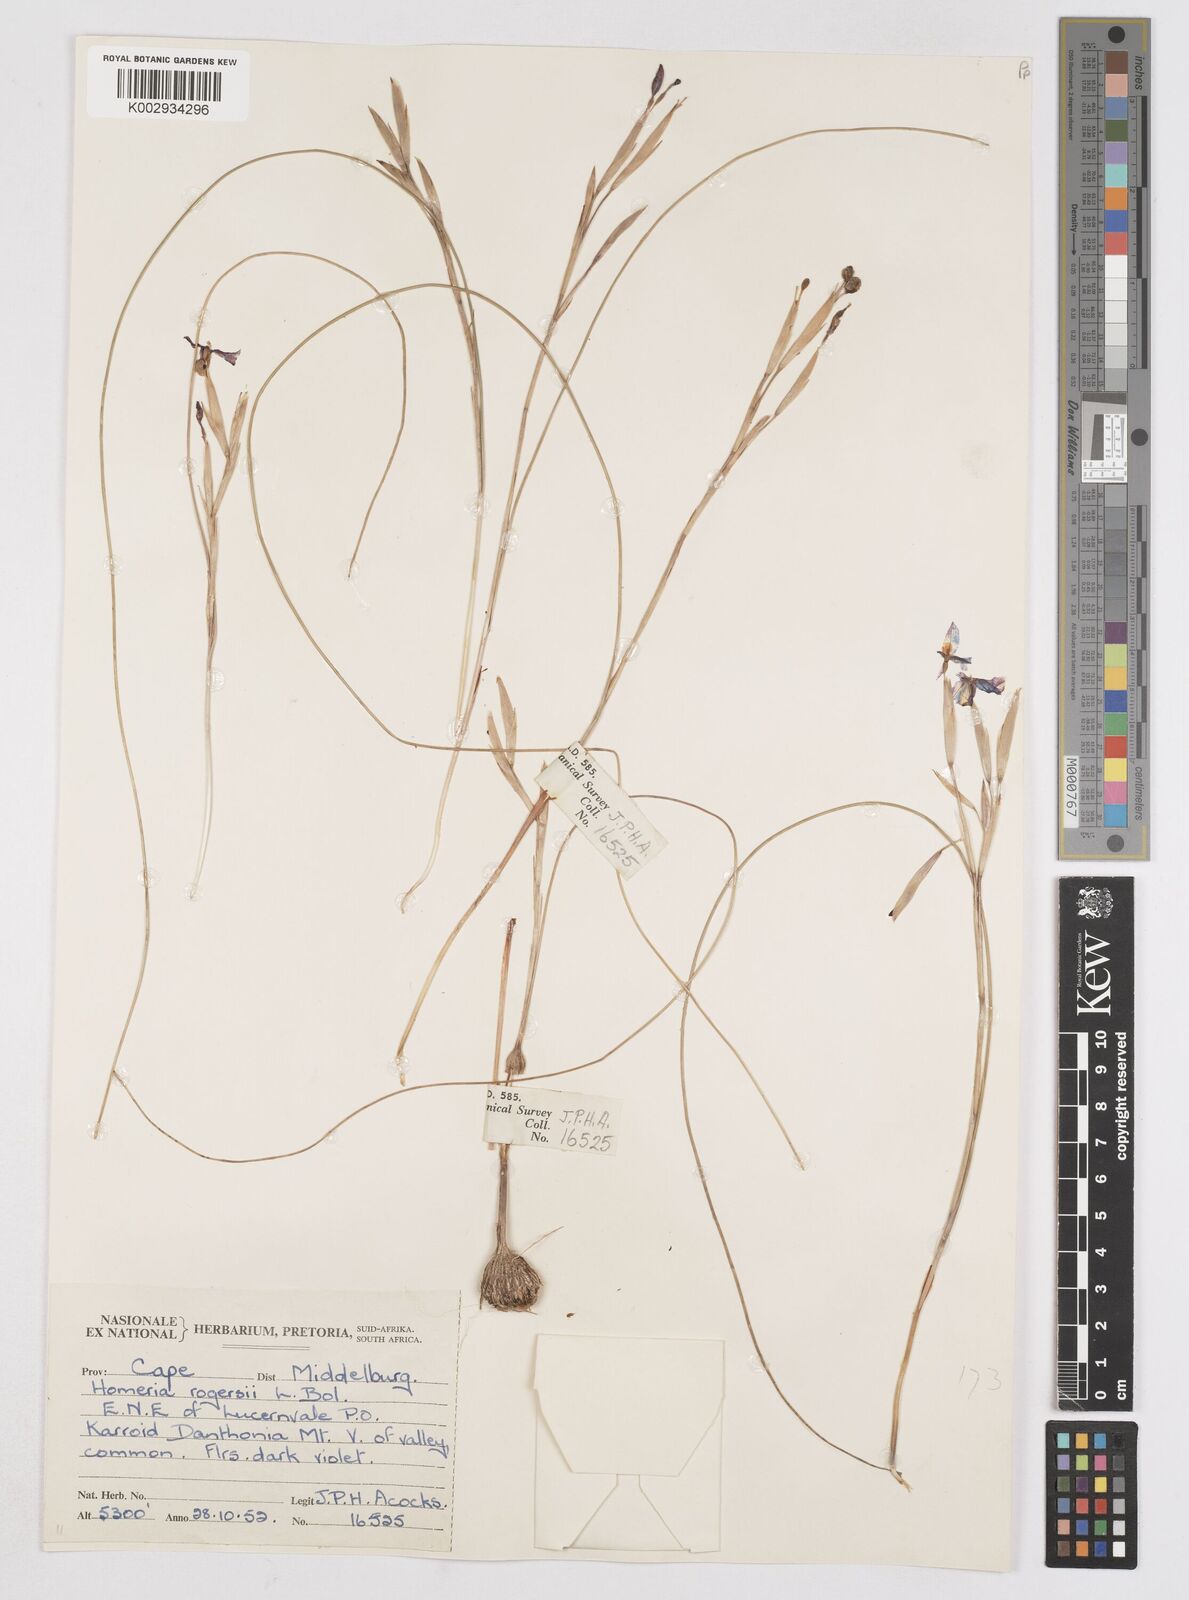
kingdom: Plantae
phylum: Tracheophyta
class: Liliopsida
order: Asparagales
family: Iridaceae
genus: Moraea
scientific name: Moraea crispa
